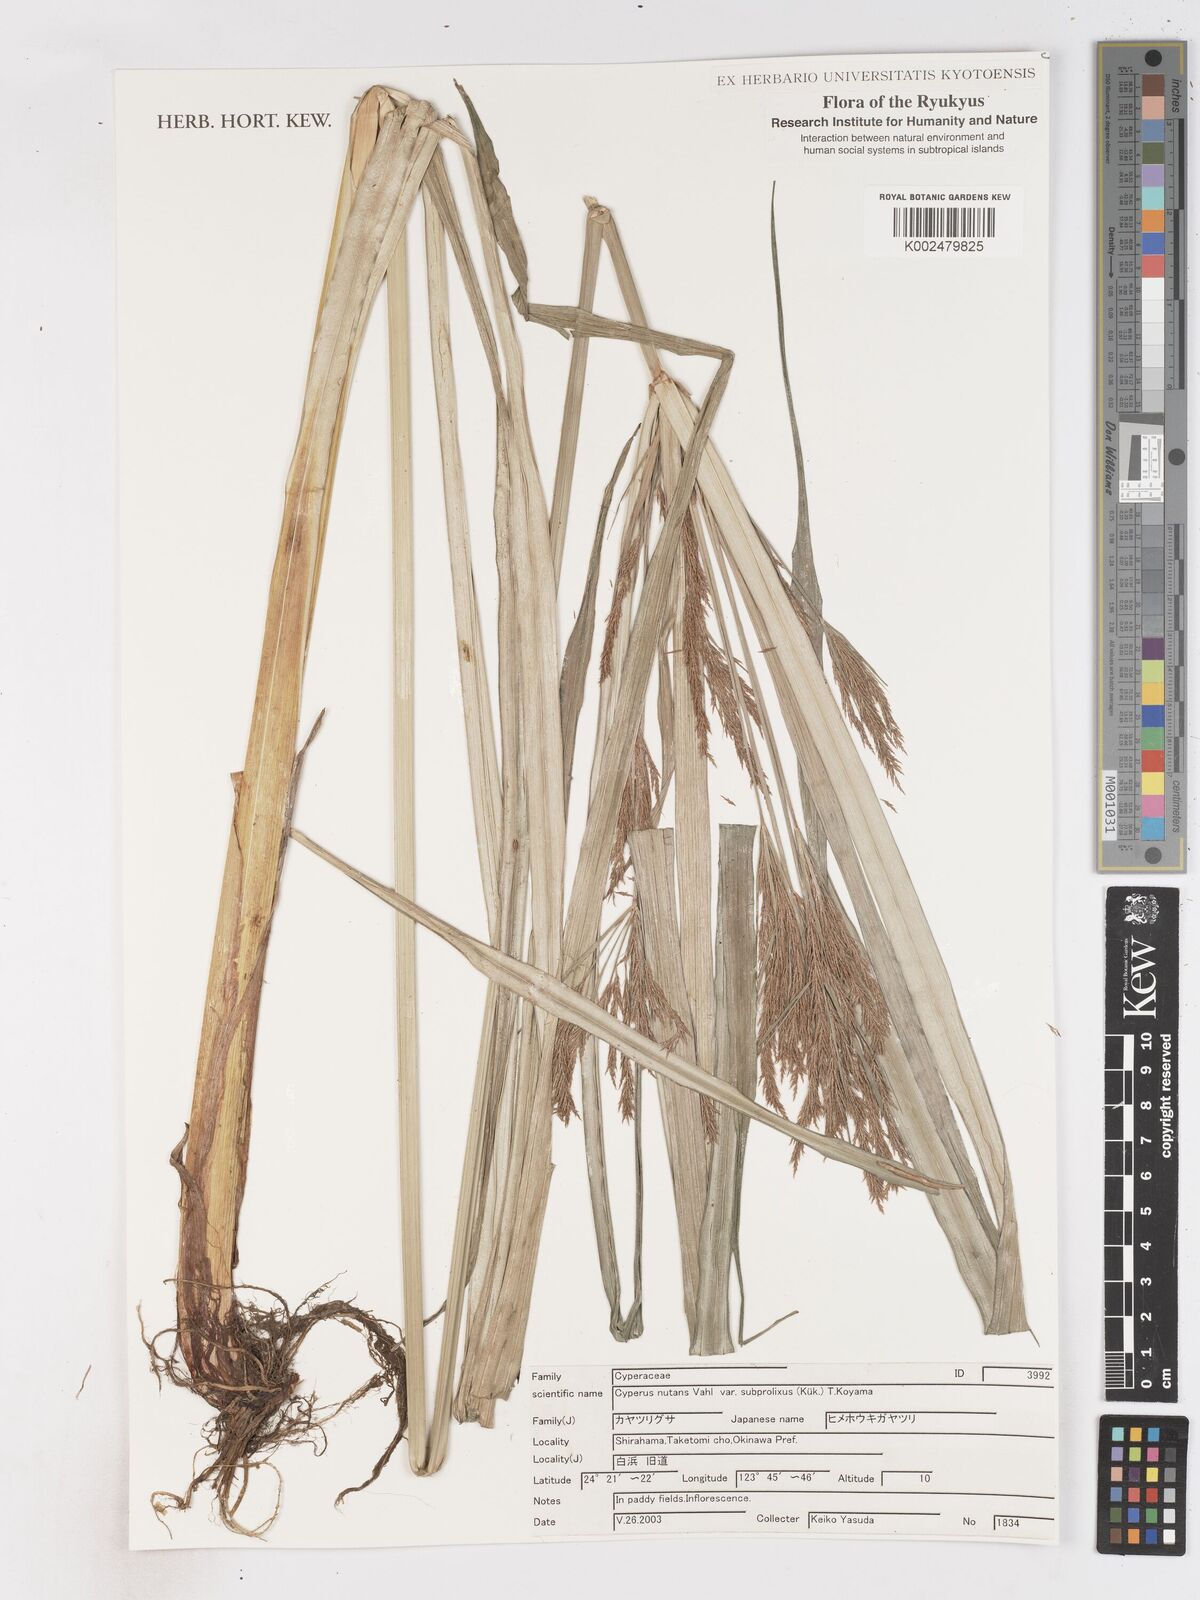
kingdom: Plantae
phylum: Tracheophyta
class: Liliopsida
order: Poales
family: Cyperaceae
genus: Cyperus
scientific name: Cyperus nutans
